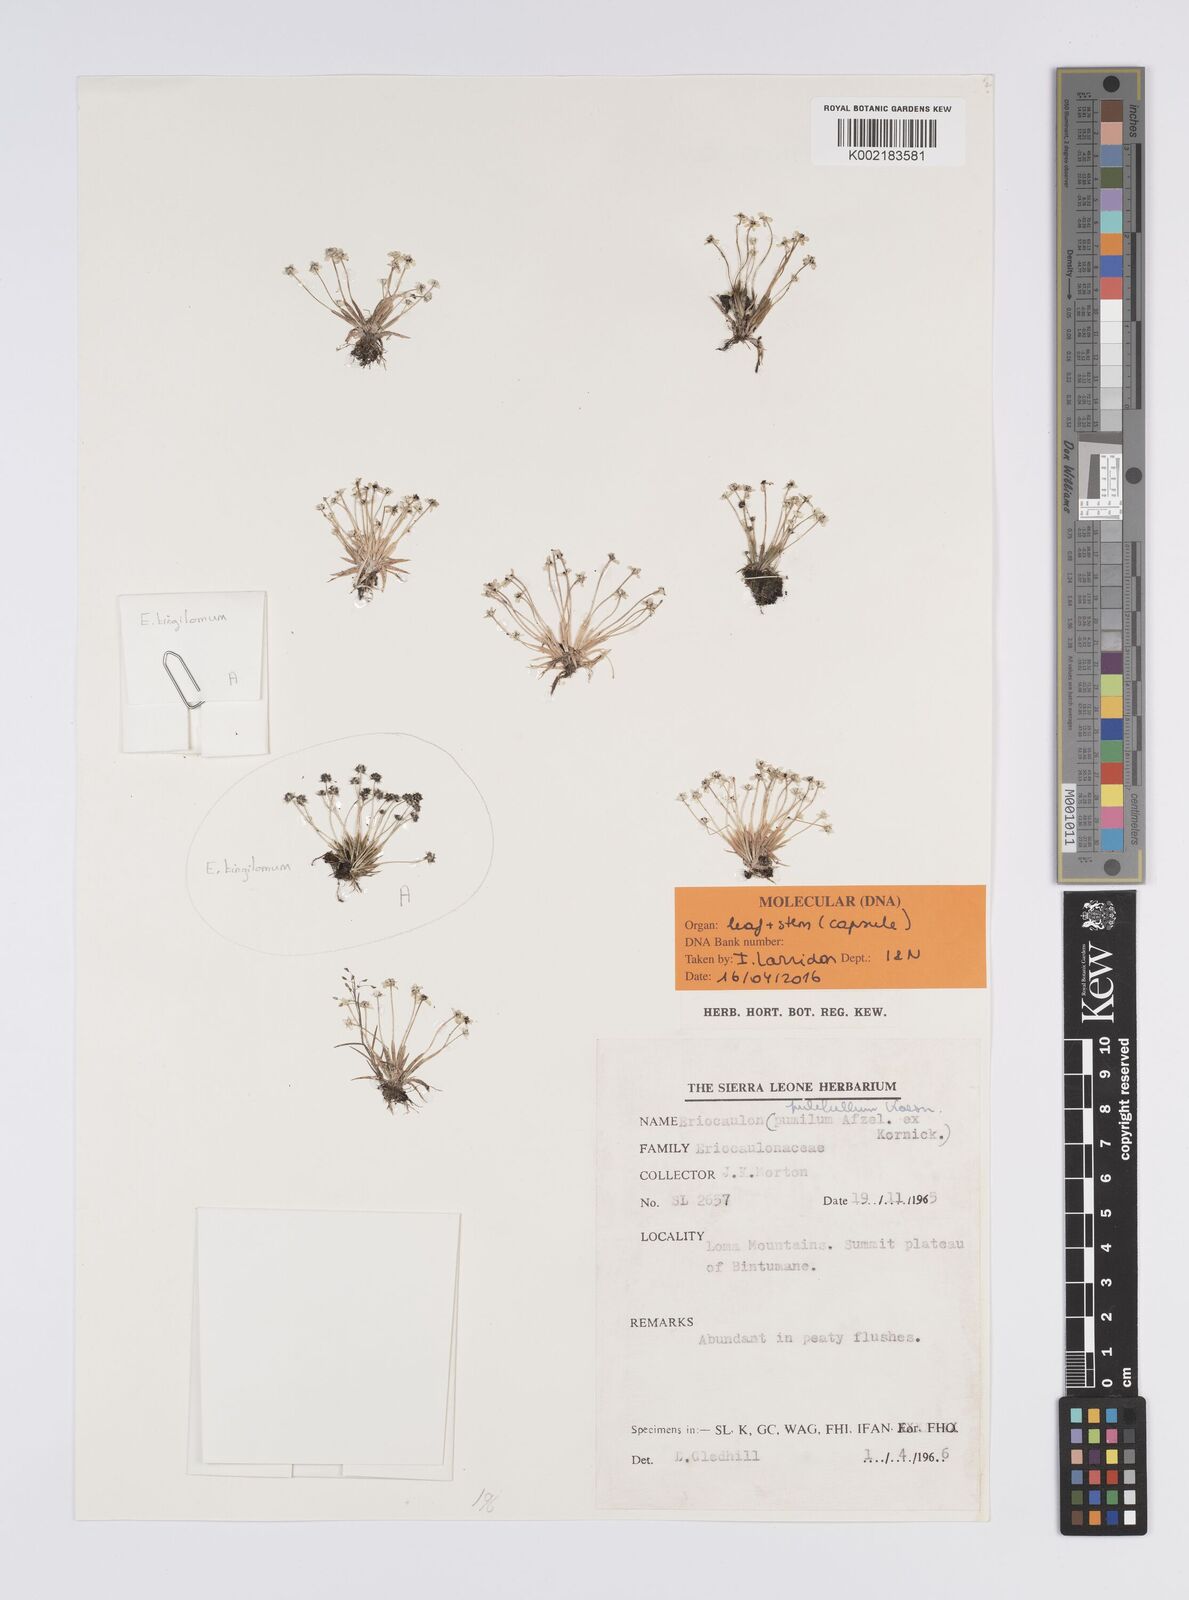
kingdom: Plantae
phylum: Tracheophyta
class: Liliopsida
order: Poales
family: Eriocaulaceae
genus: Eriocaulon
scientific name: Eriocaulon pulchellum
